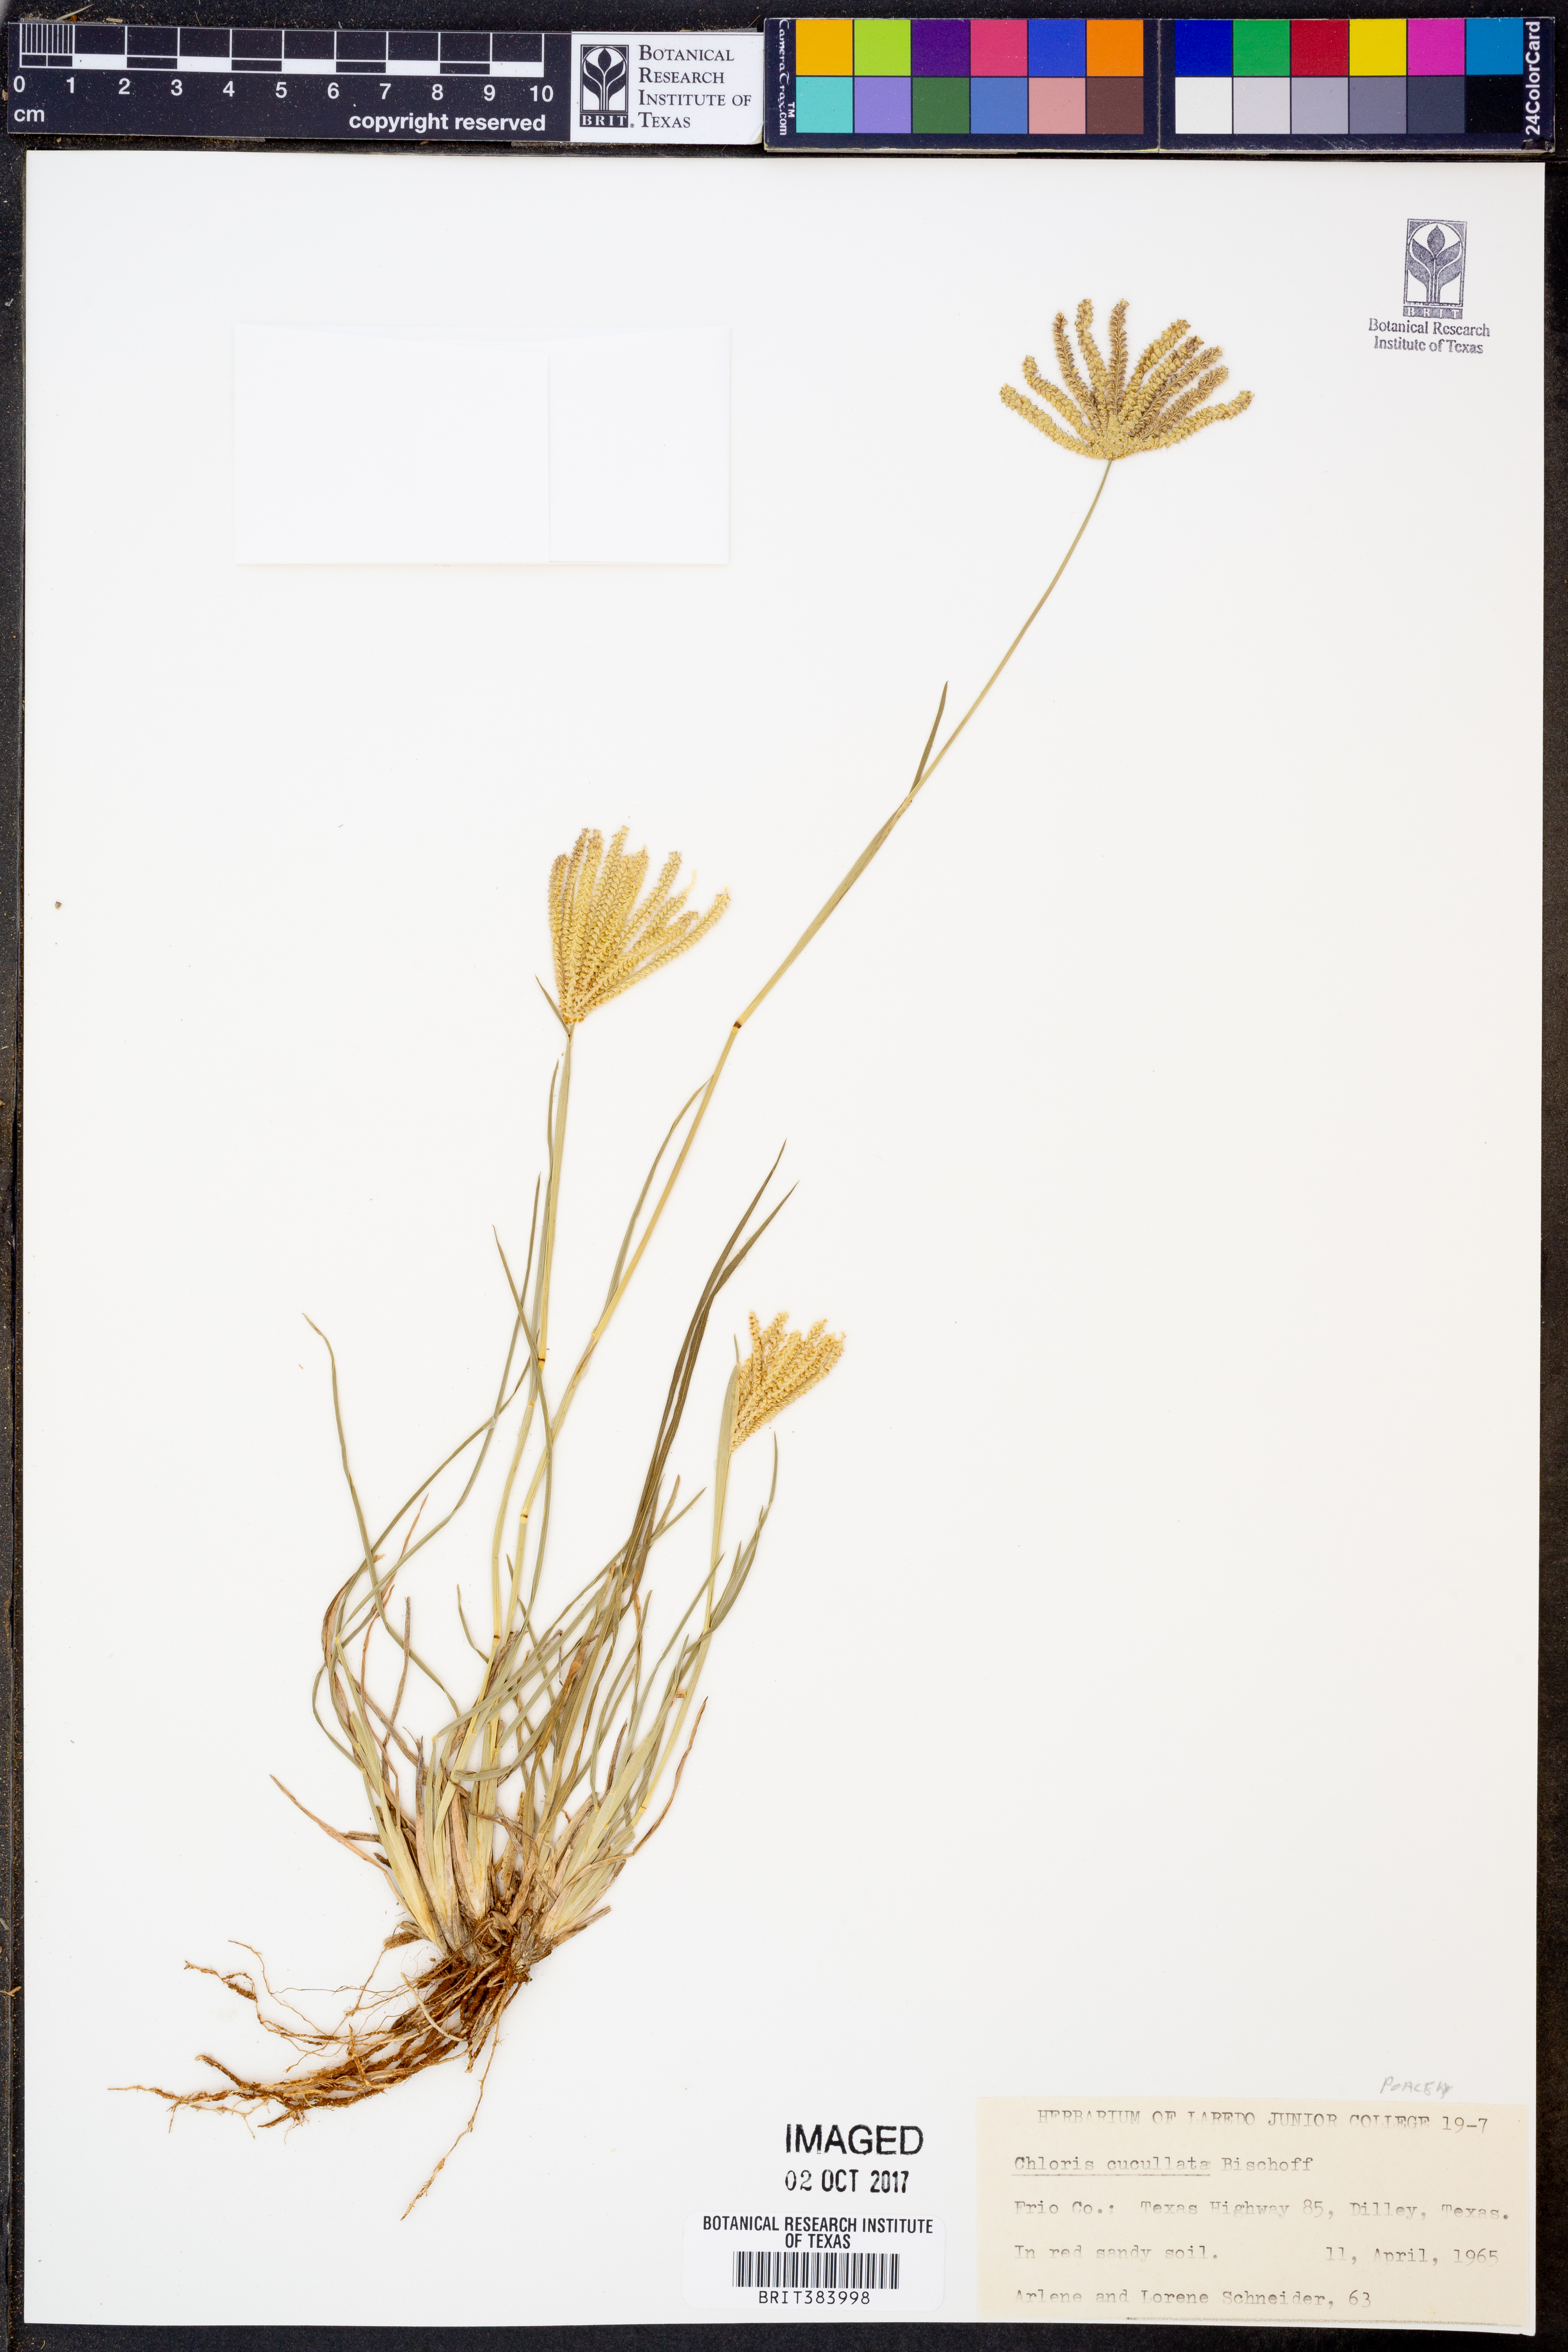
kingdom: Plantae
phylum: Tracheophyta
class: Liliopsida
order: Poales
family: Poaceae
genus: Chloris
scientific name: Chloris cucullata
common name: Hooded windmill grass
